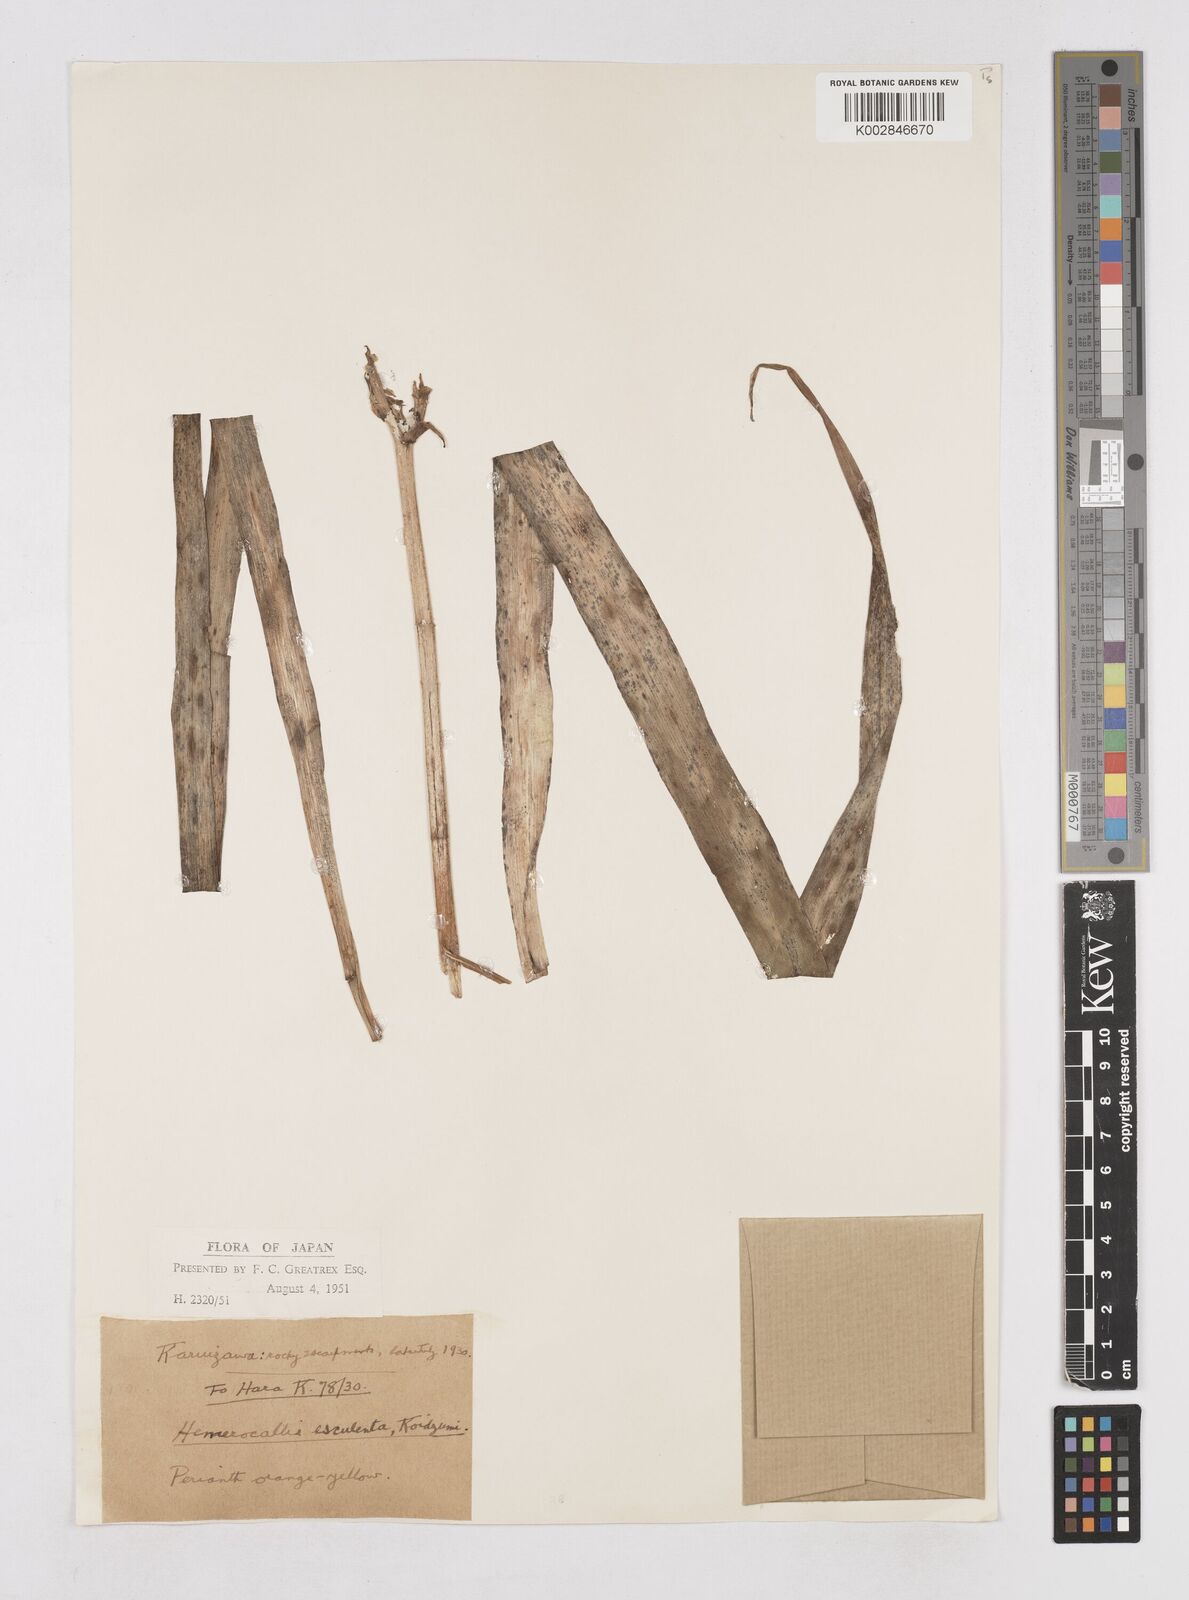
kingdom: Plantae
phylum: Tracheophyta
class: Liliopsida
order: Asparagales
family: Asphodelaceae
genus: Hemerocallis
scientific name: Hemerocallis fulva
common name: Orange day-lily
